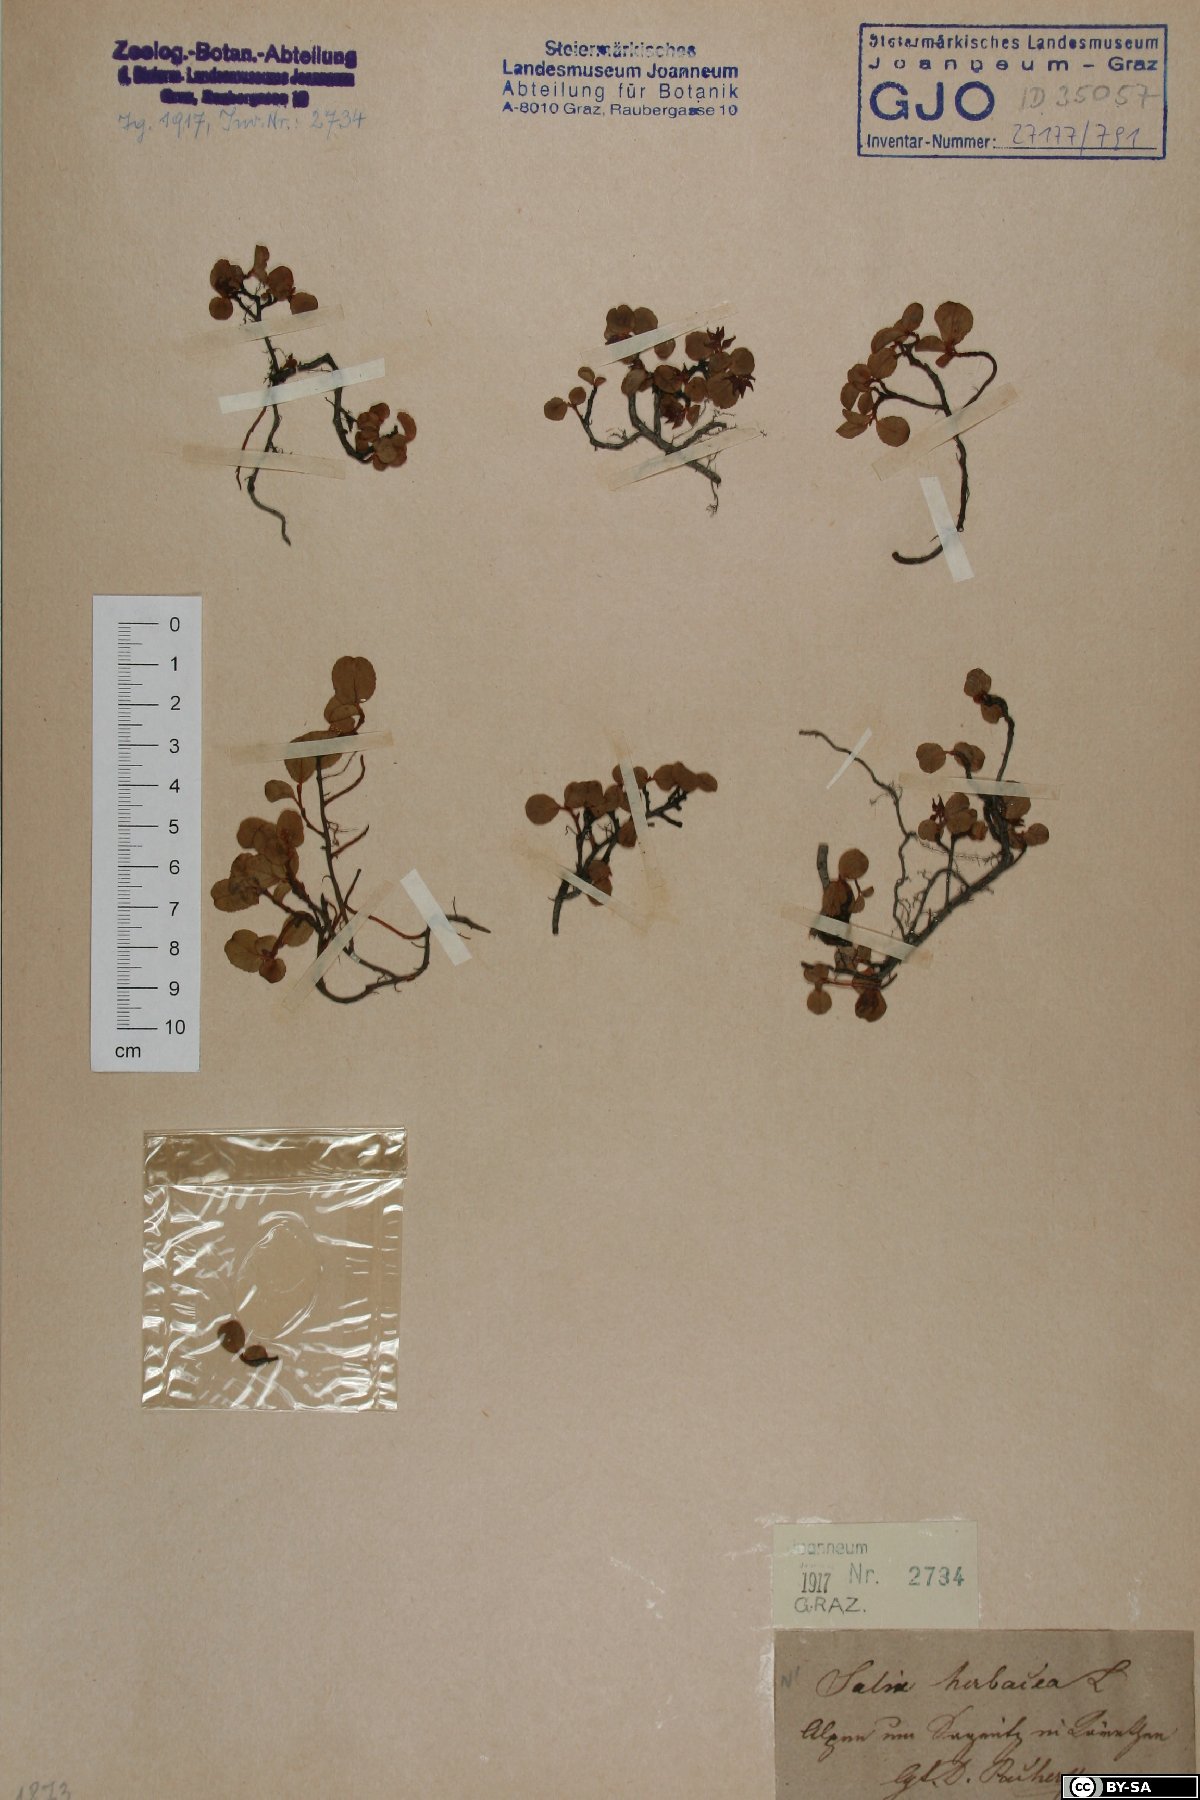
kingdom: Plantae
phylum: Tracheophyta
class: Magnoliopsida
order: Malpighiales
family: Salicaceae
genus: Salix
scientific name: Salix herbacea
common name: Dwarf willow
